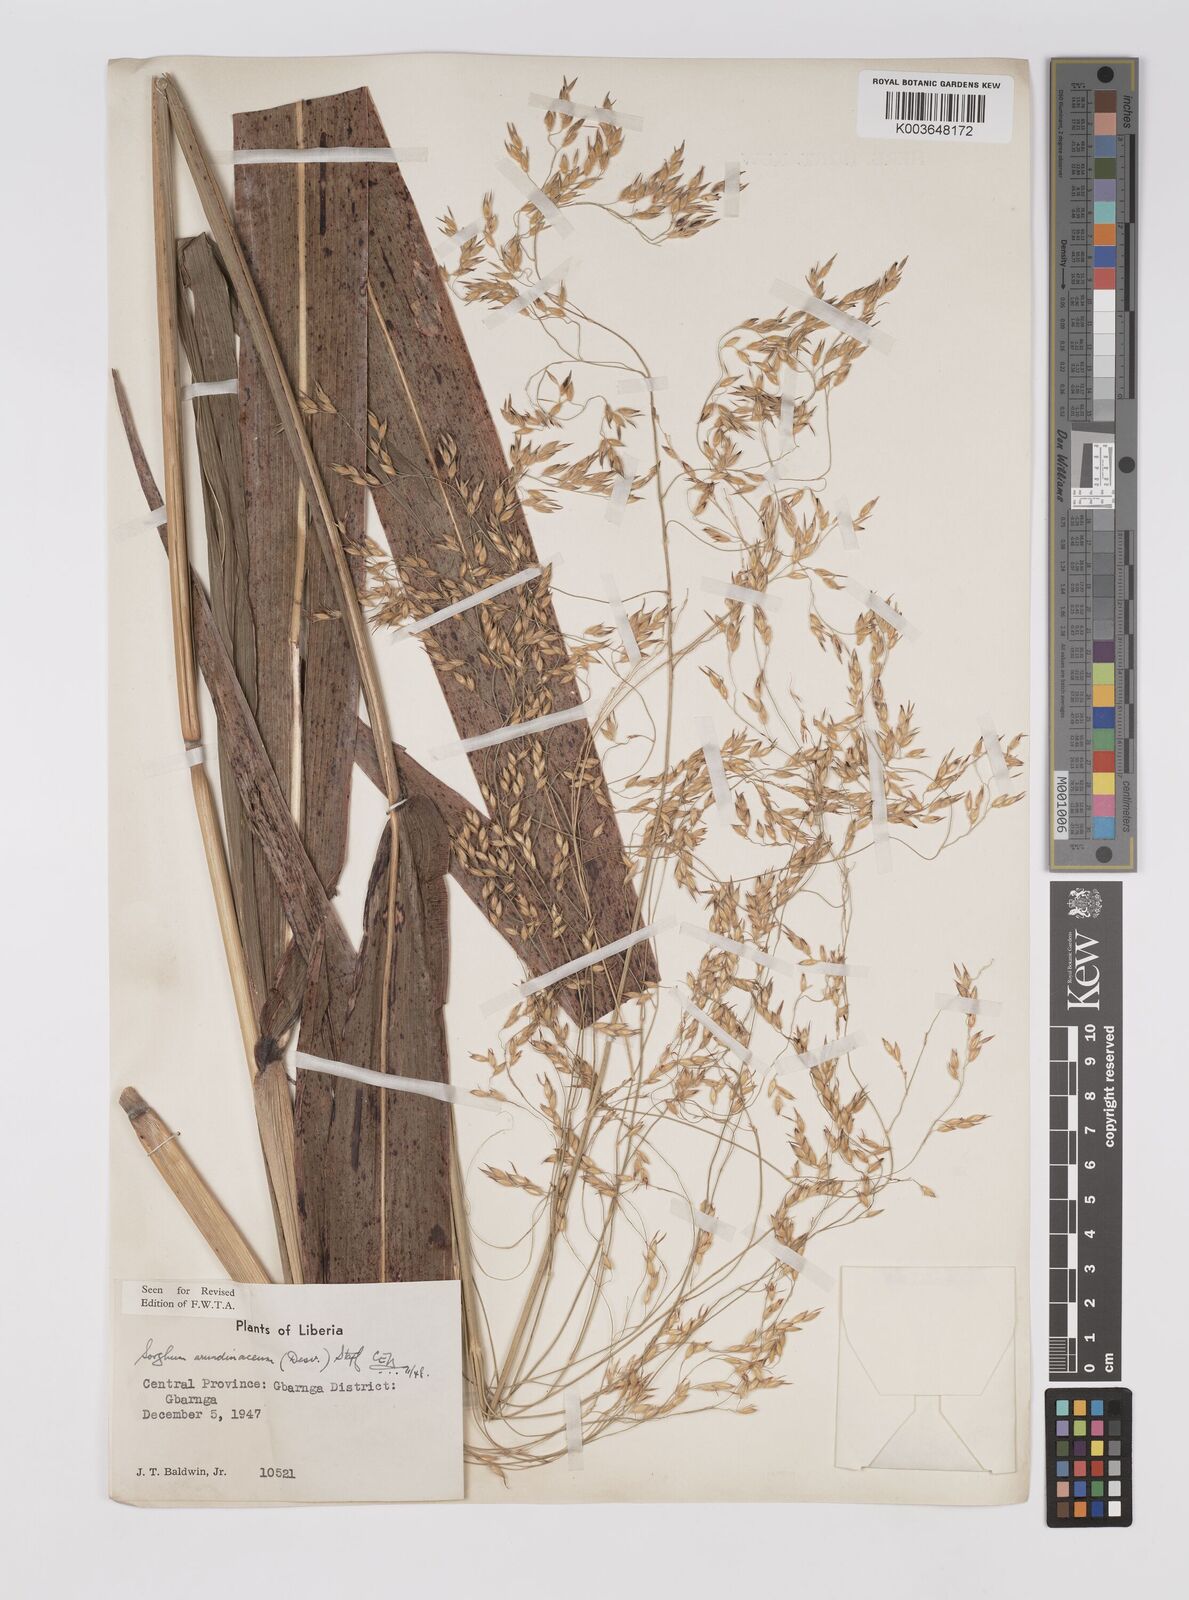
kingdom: Plantae
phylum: Tracheophyta
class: Liliopsida
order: Poales
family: Poaceae
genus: Sorghum
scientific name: Sorghum arundinaceum
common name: Sorghum
